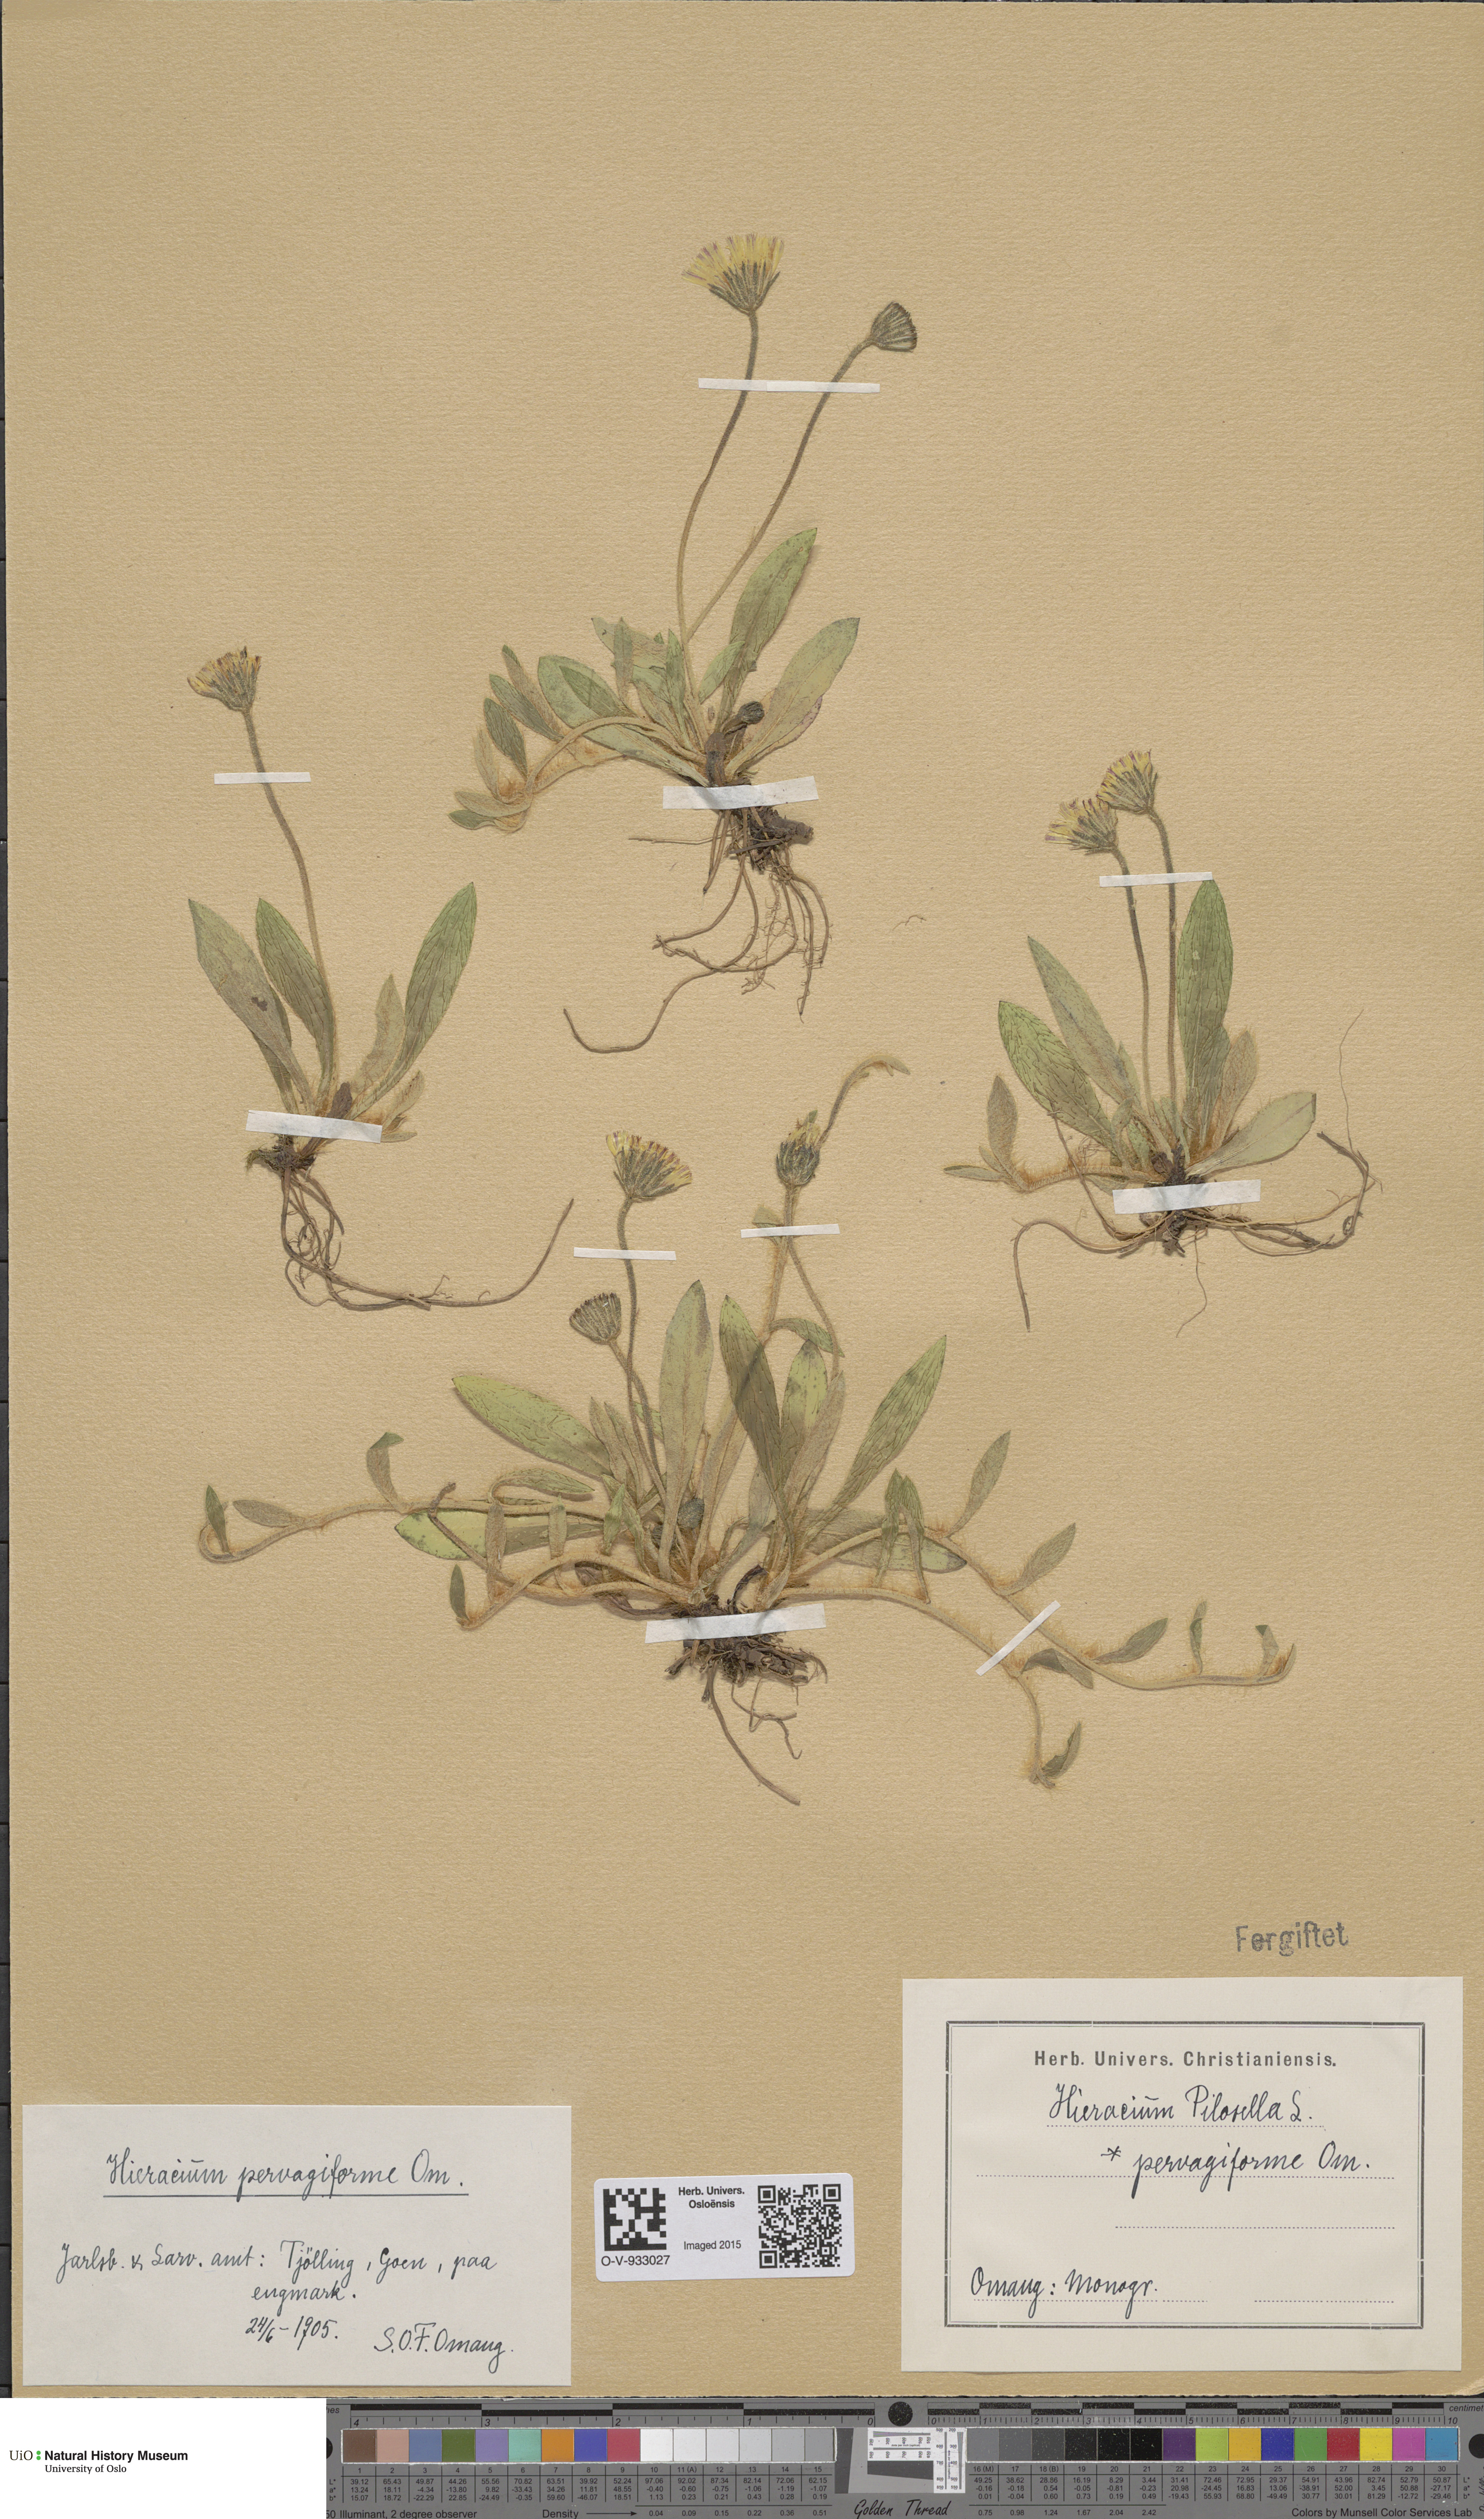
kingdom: Plantae
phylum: Tracheophyta
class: Magnoliopsida
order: Asterales
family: Asteraceae
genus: Pilosella
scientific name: Pilosella officinarum
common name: Mouse-ear hawkweed
